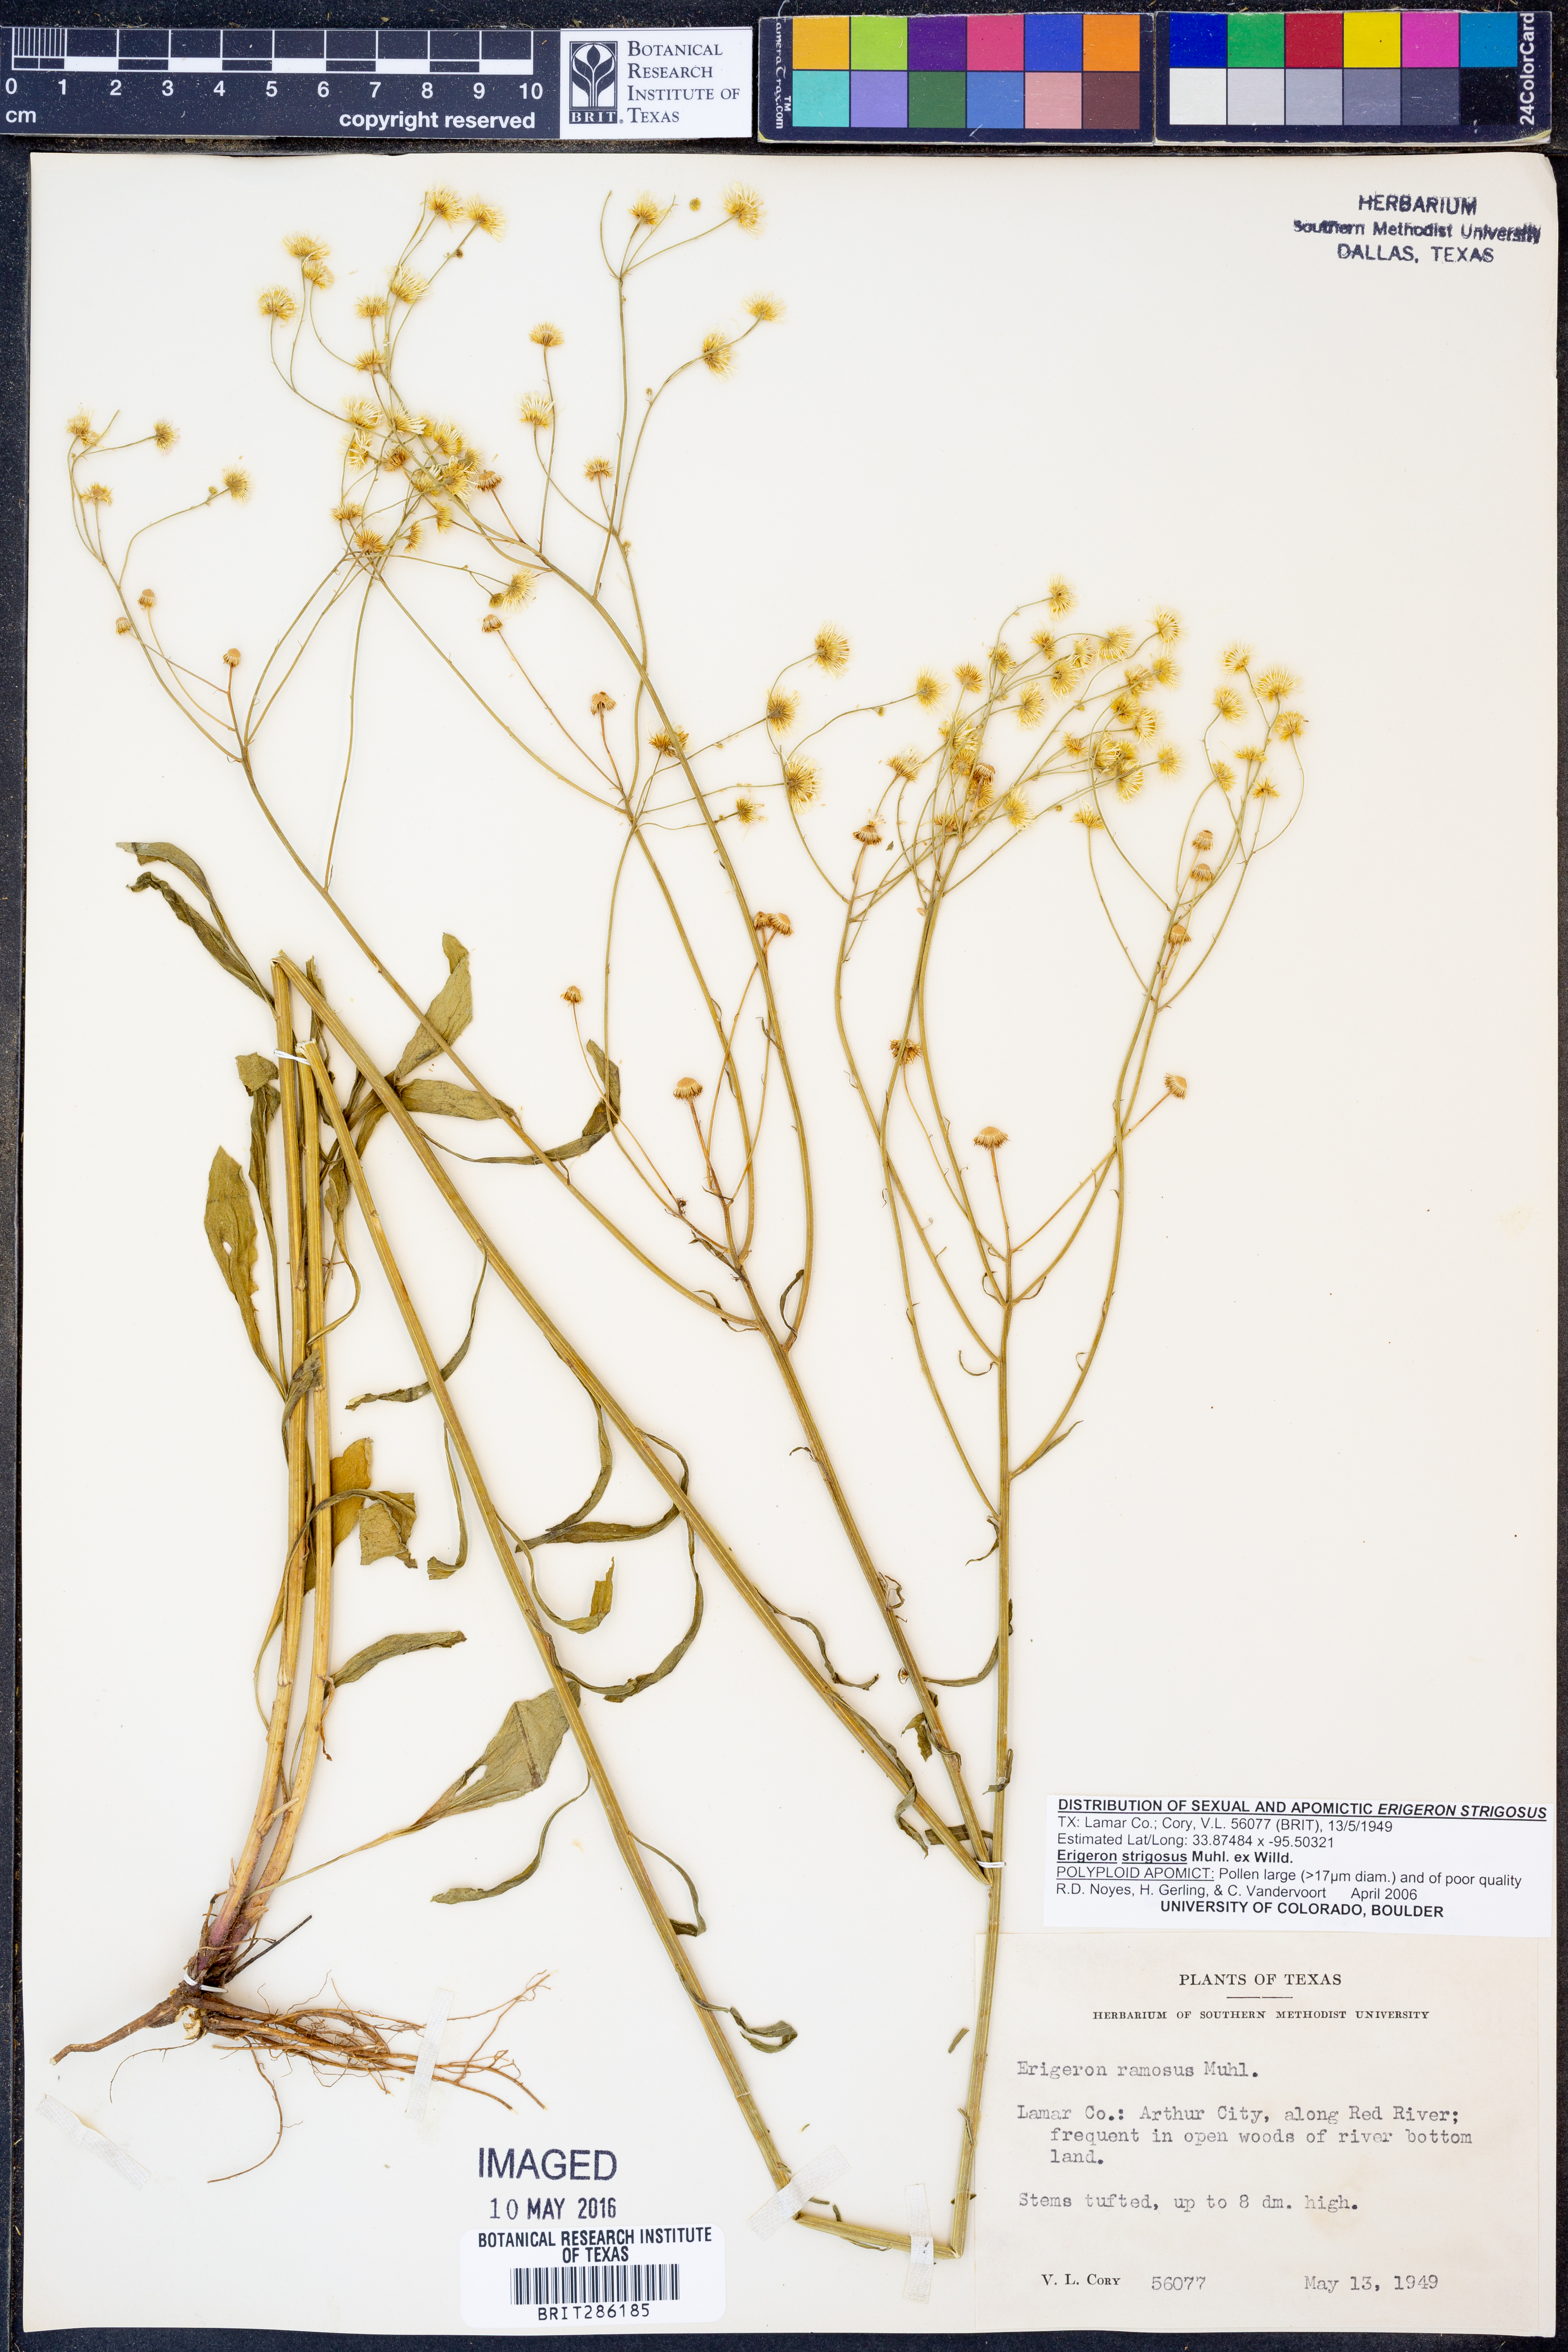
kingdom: Plantae
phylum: Tracheophyta
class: Magnoliopsida
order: Asterales
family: Asteraceae
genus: Erigeron
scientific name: Erigeron strigosus
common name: Common eastern fleabane
